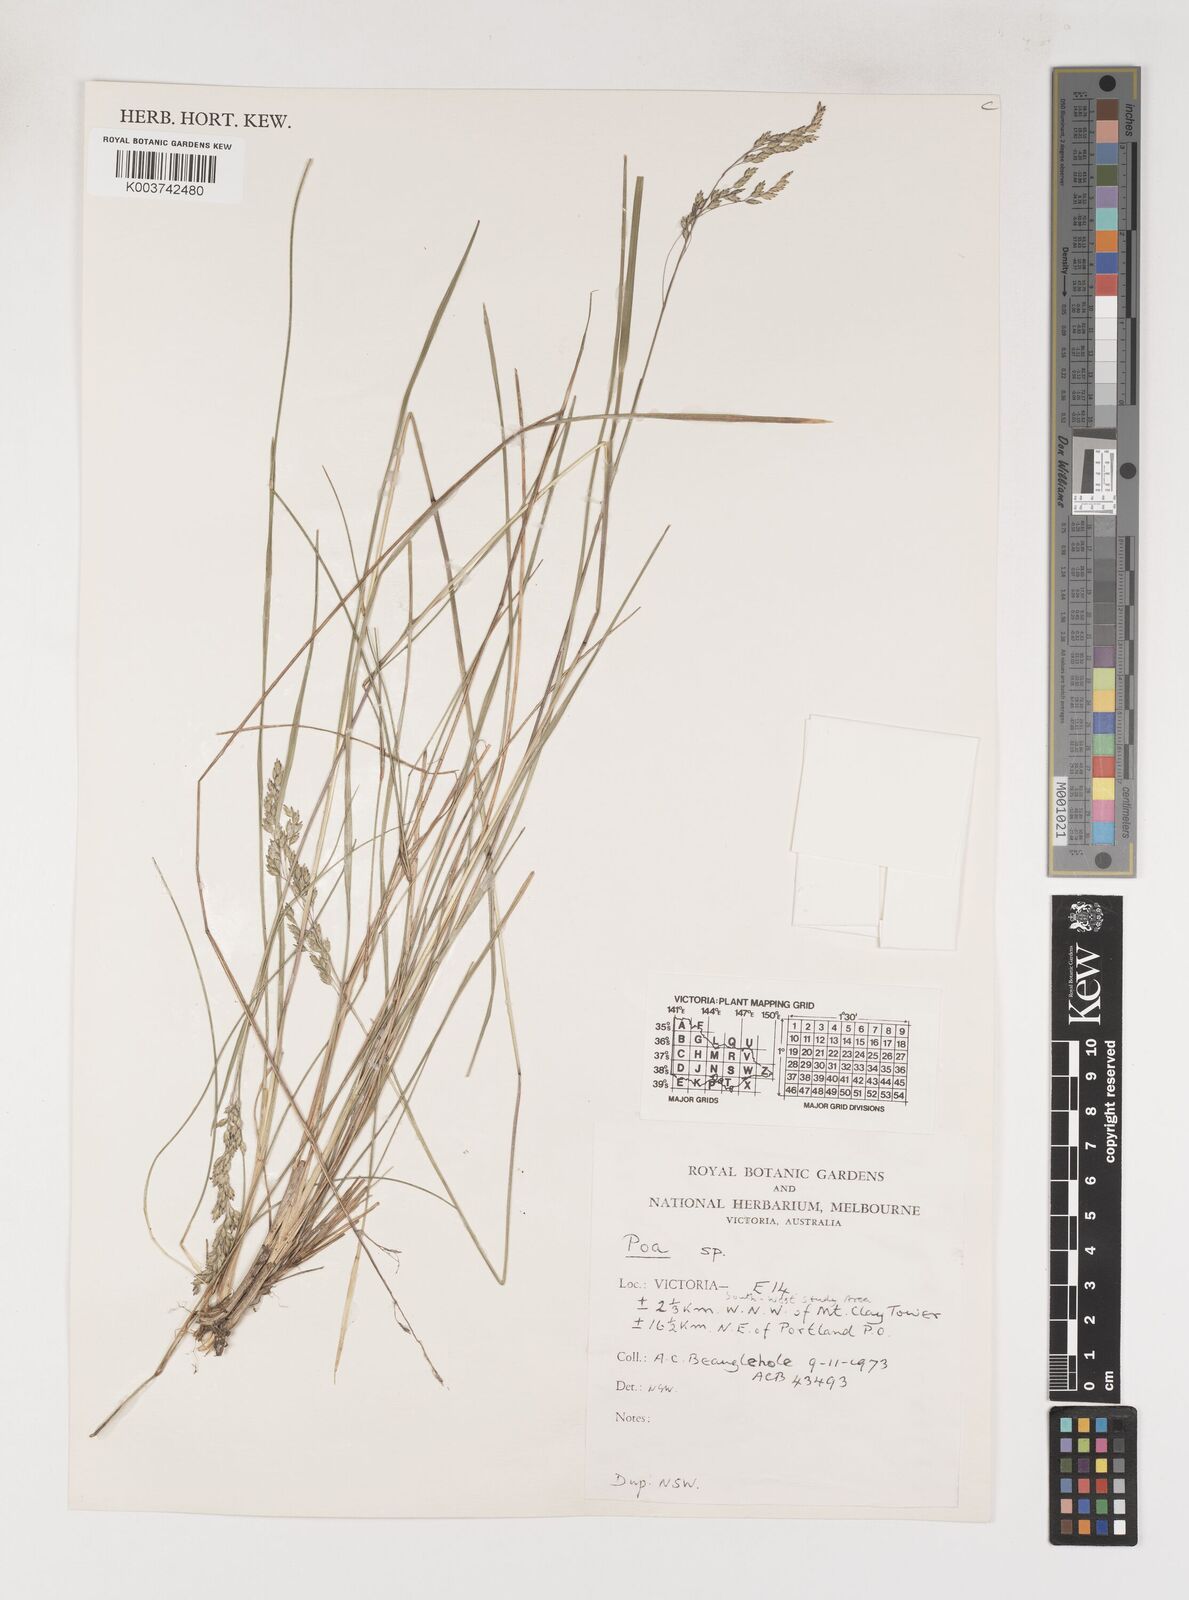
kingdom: Plantae
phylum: Tracheophyta
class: Liliopsida
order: Poales
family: Poaceae
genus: Poa
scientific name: Poa
